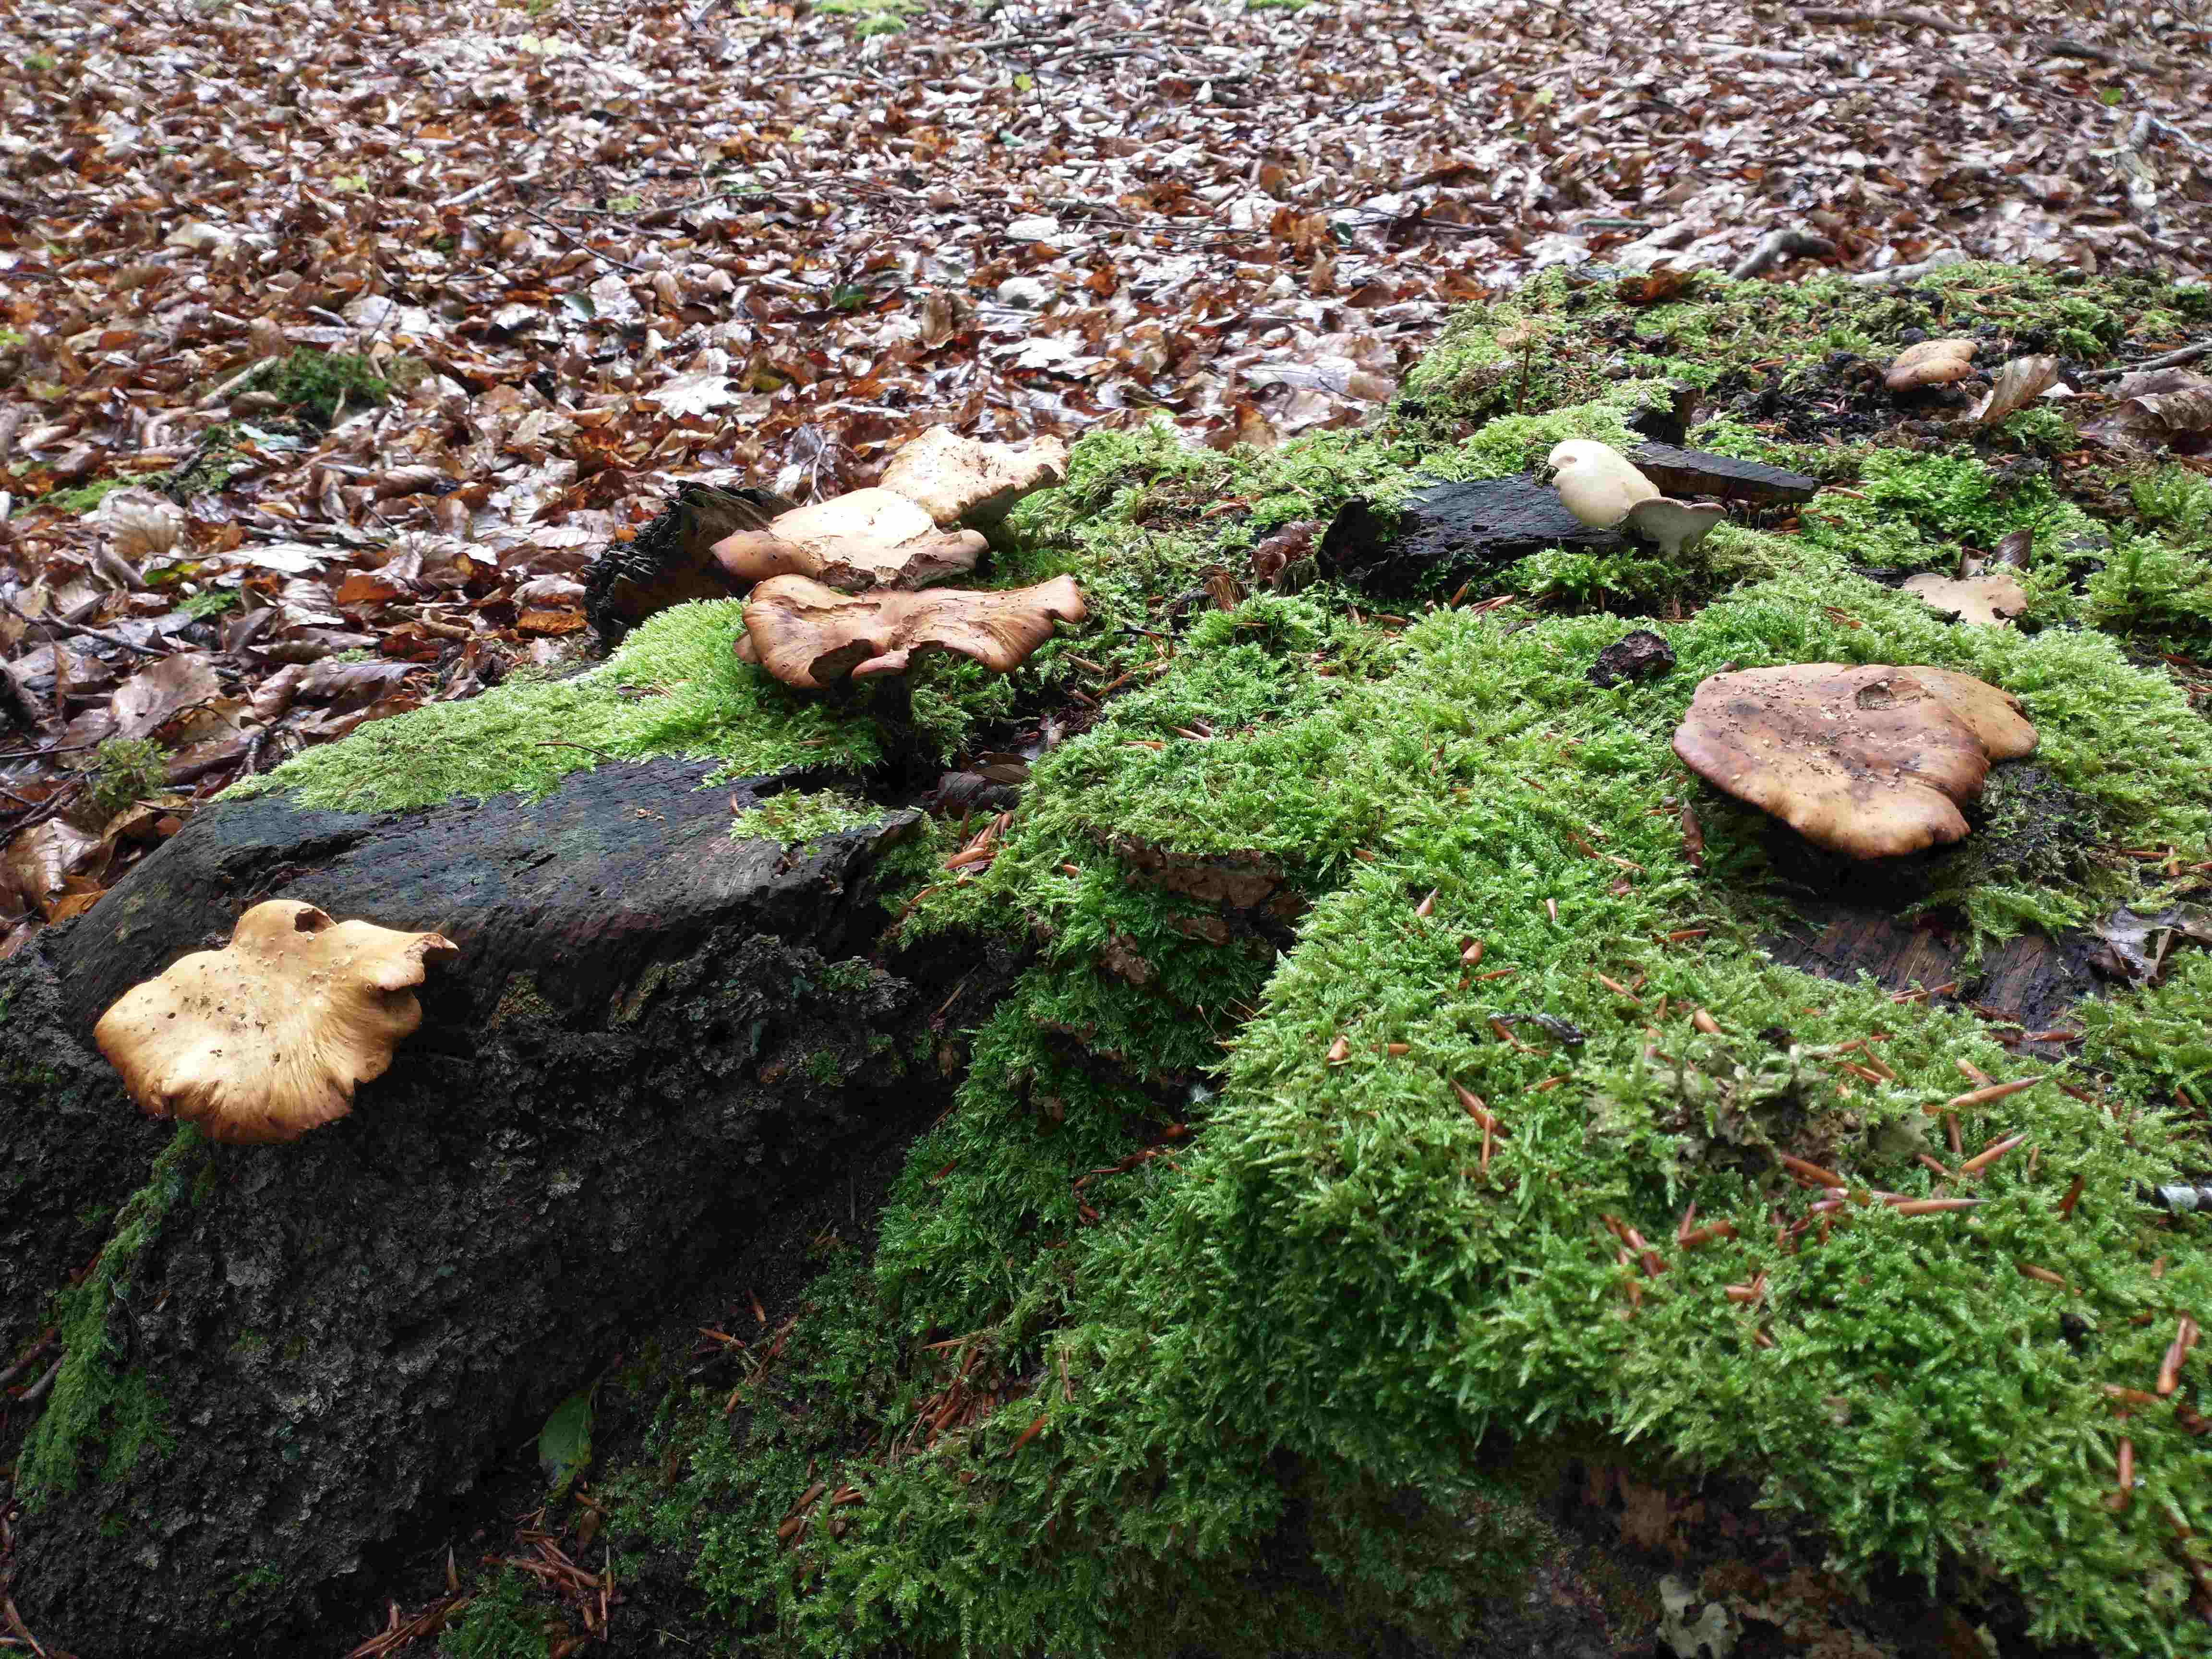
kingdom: Fungi
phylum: Basidiomycota
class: Agaricomycetes
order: Polyporales
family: Polyporaceae
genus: Cerioporus
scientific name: Cerioporus varius
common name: foranderlig stilkporesvamp
